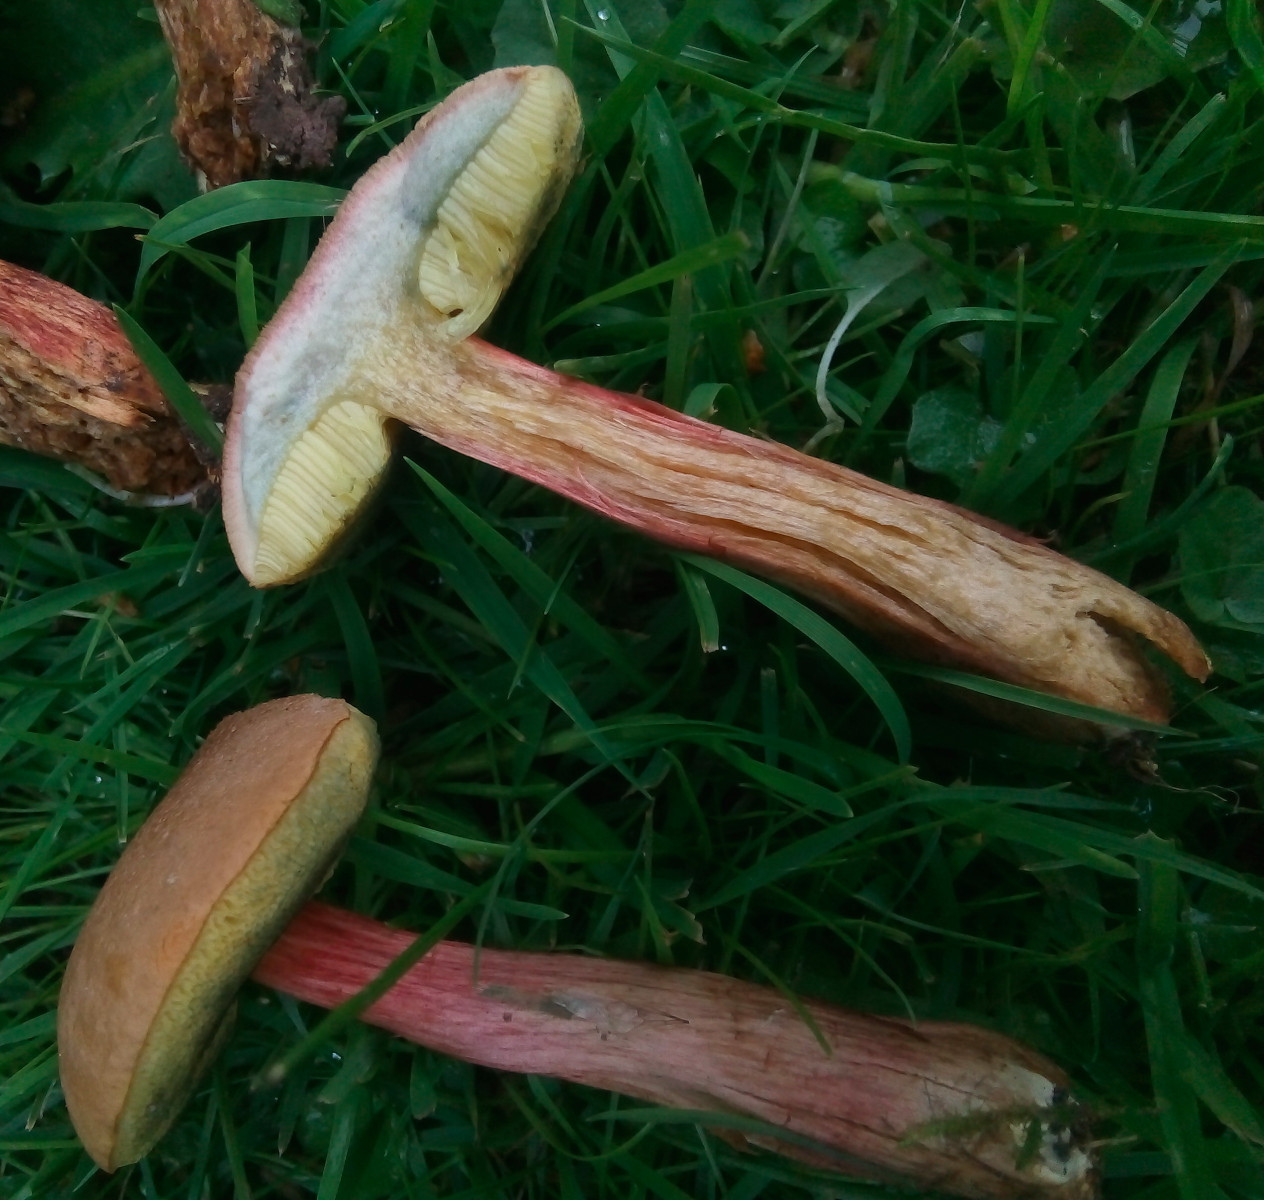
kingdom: Fungi
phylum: Basidiomycota
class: Agaricomycetes
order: Boletales
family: Boletaceae
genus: Hortiboletus
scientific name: Hortiboletus bubalinus
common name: aurora-rørhat
